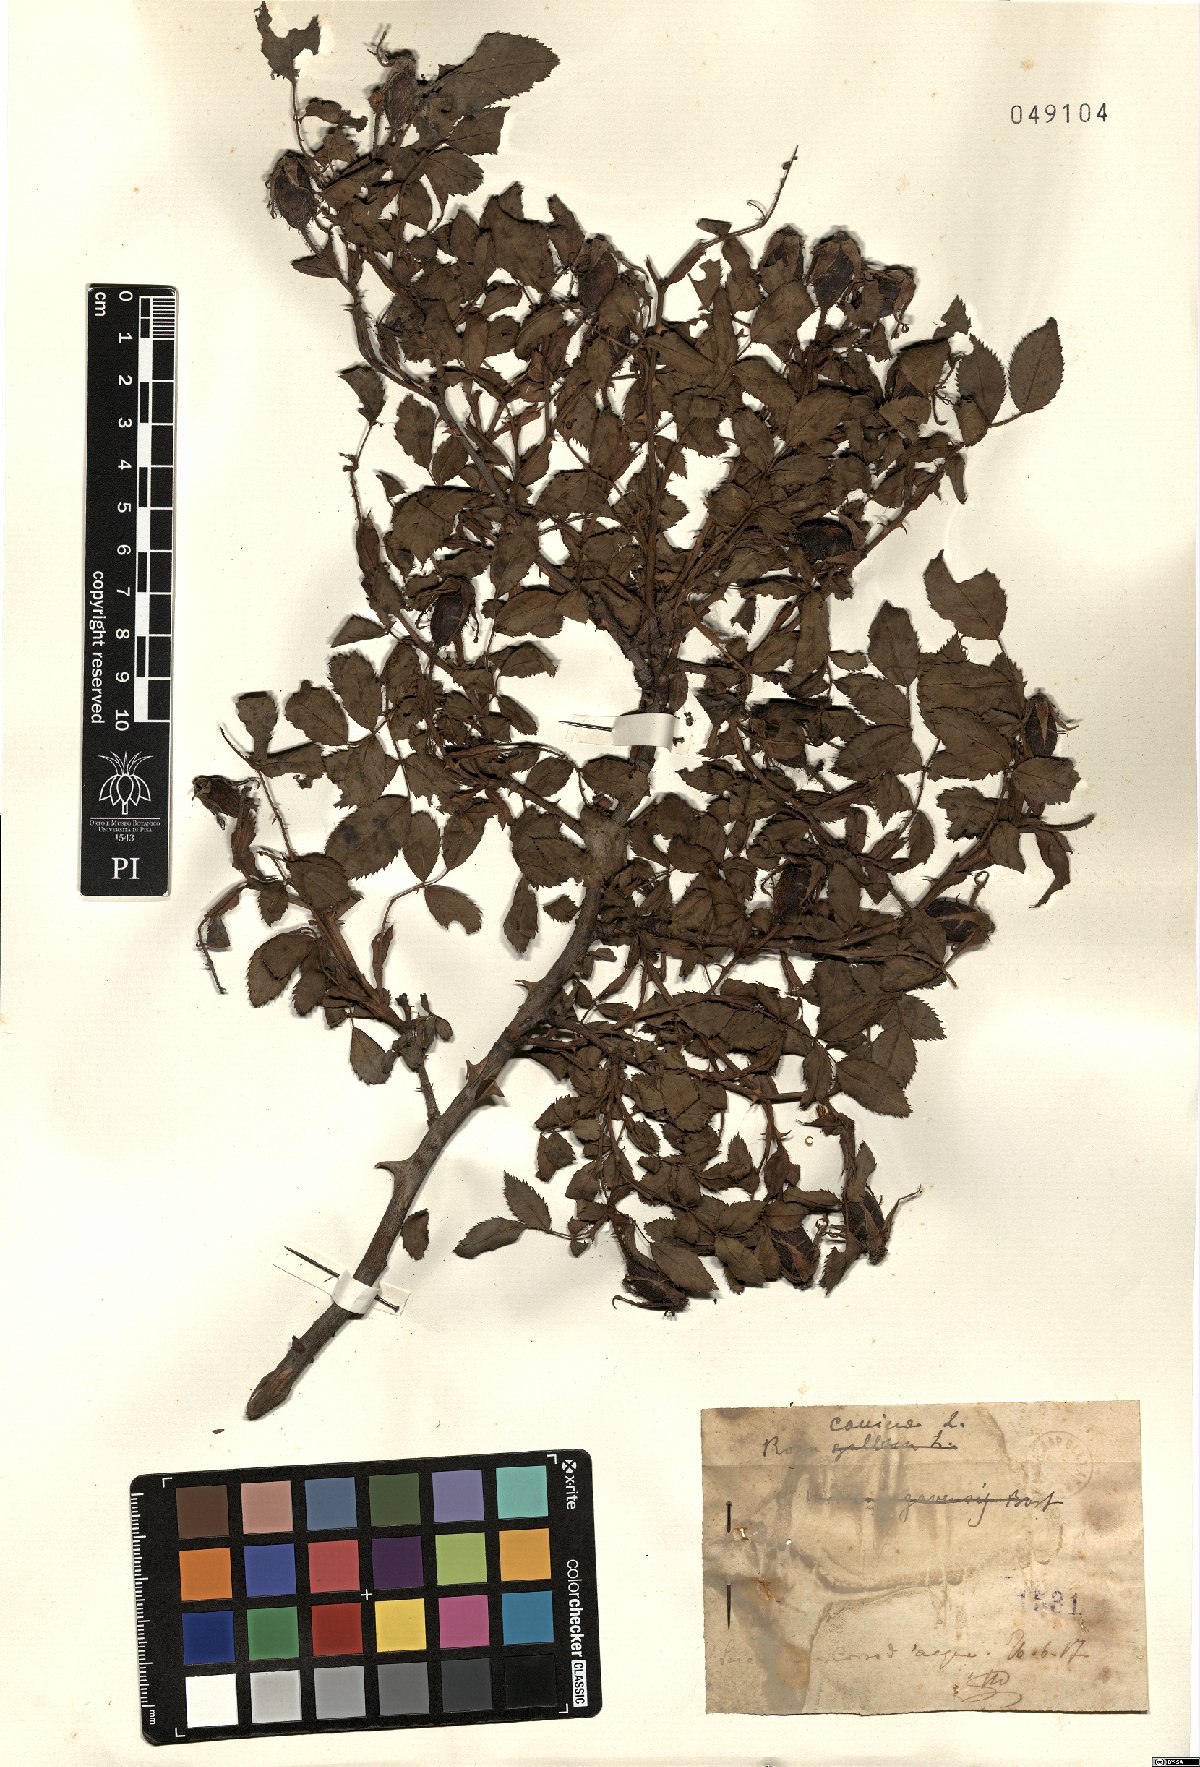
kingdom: Plantae
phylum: Tracheophyta
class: Magnoliopsida
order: Rosales
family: Rosaceae
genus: Rosa
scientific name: Rosa canina
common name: Dog rose
